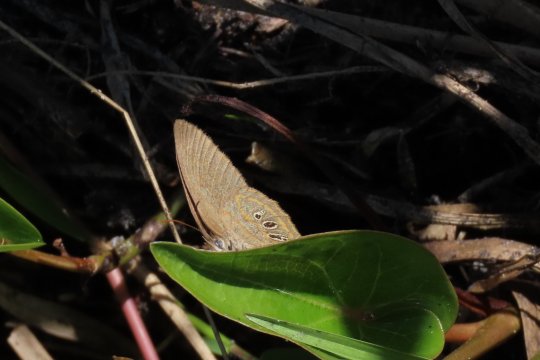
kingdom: Animalia
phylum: Arthropoda
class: Insecta
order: Lepidoptera
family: Nymphalidae
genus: Euptychia
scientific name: Euptychia phocion
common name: Georgia Satyr
